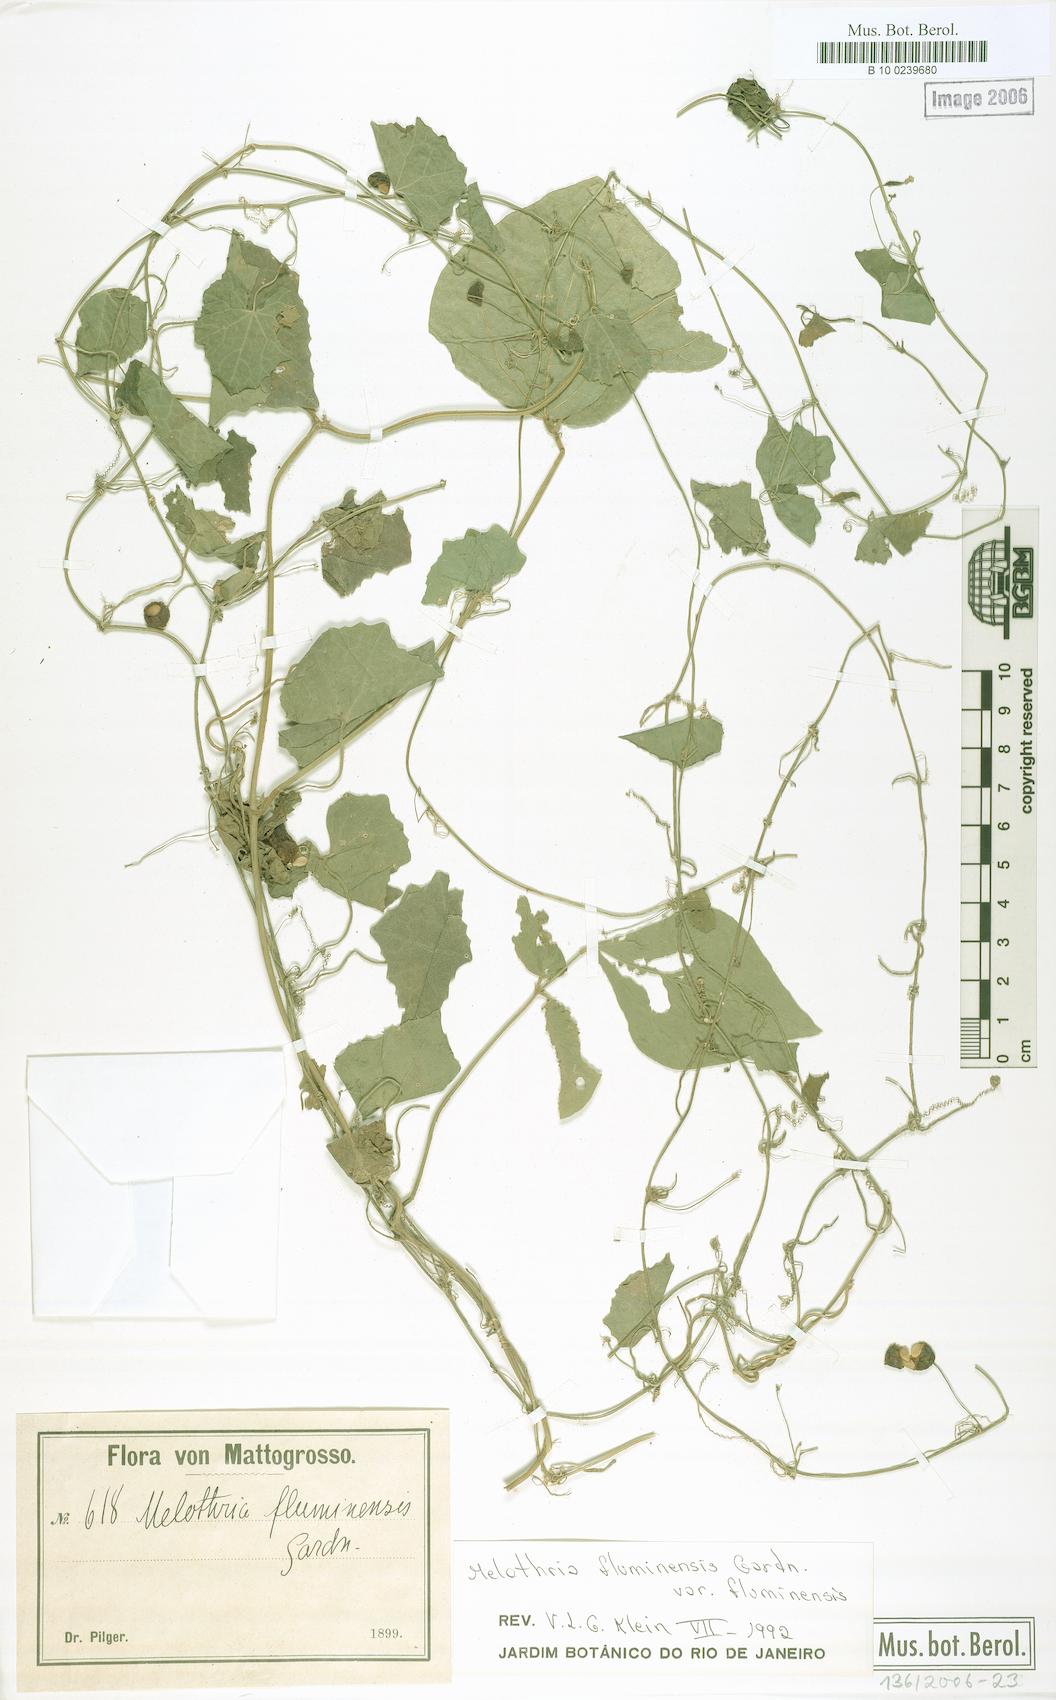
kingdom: Plantae
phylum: Tracheophyta
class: Magnoliopsida
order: Cucurbitales
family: Cucurbitaceae
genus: Melothria
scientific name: Melothria fluminensis
